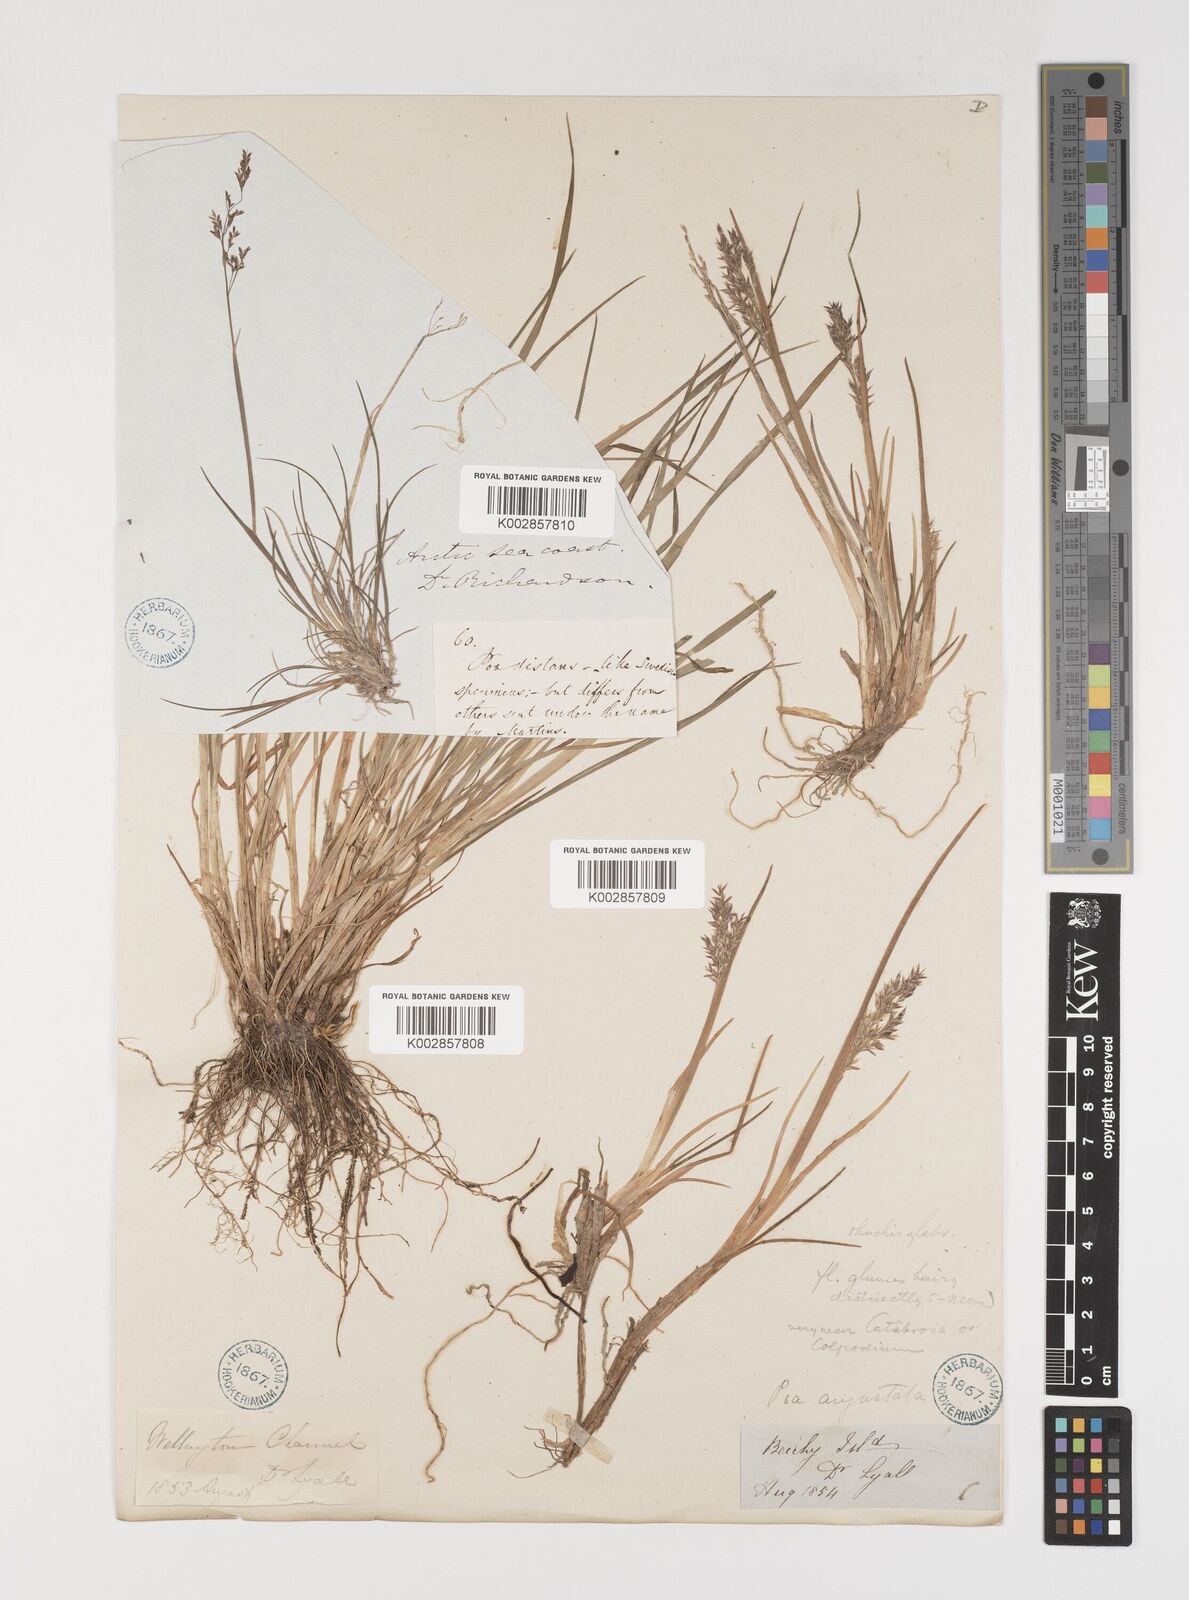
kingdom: Plantae
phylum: Tracheophyta
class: Liliopsida
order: Poales
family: Poaceae
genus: Puccinellia
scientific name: Puccinellia angustata
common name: Narrow alkaligrass
